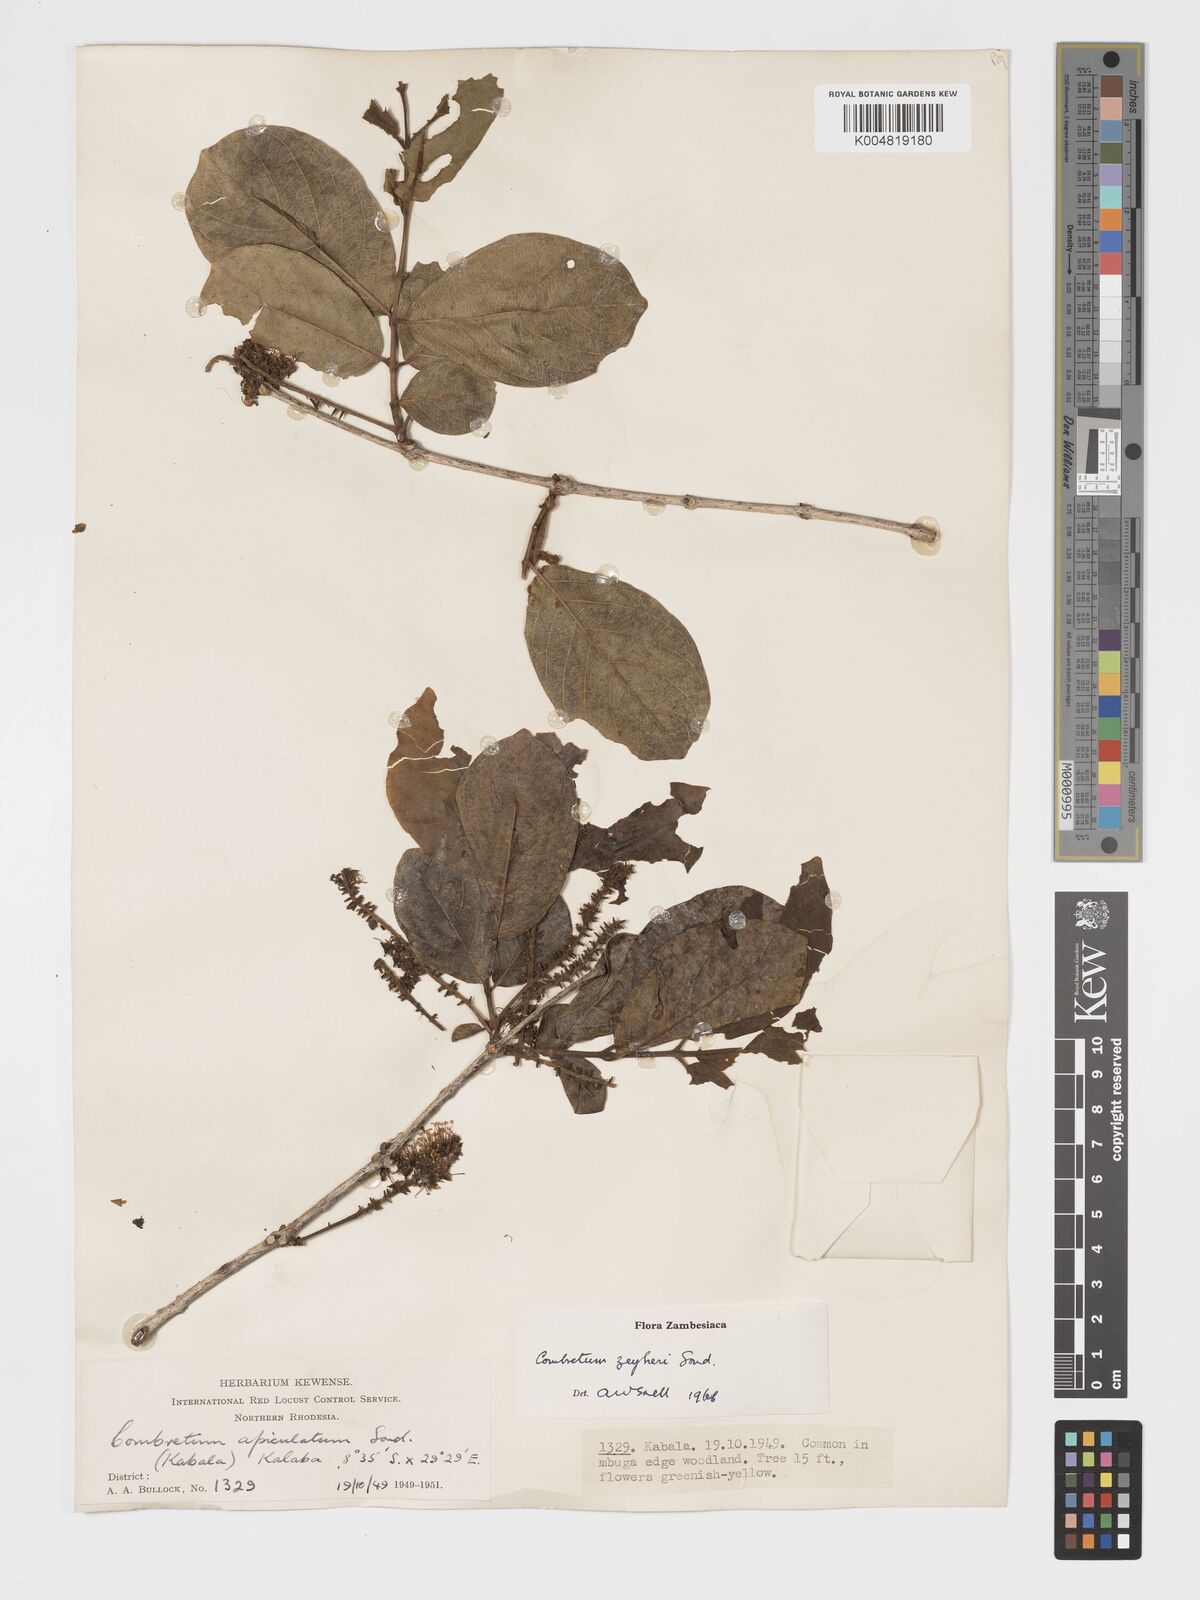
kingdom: Plantae
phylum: Tracheophyta
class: Magnoliopsida
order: Myrtales
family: Combretaceae
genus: Combretum
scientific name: Combretum zeyheri
